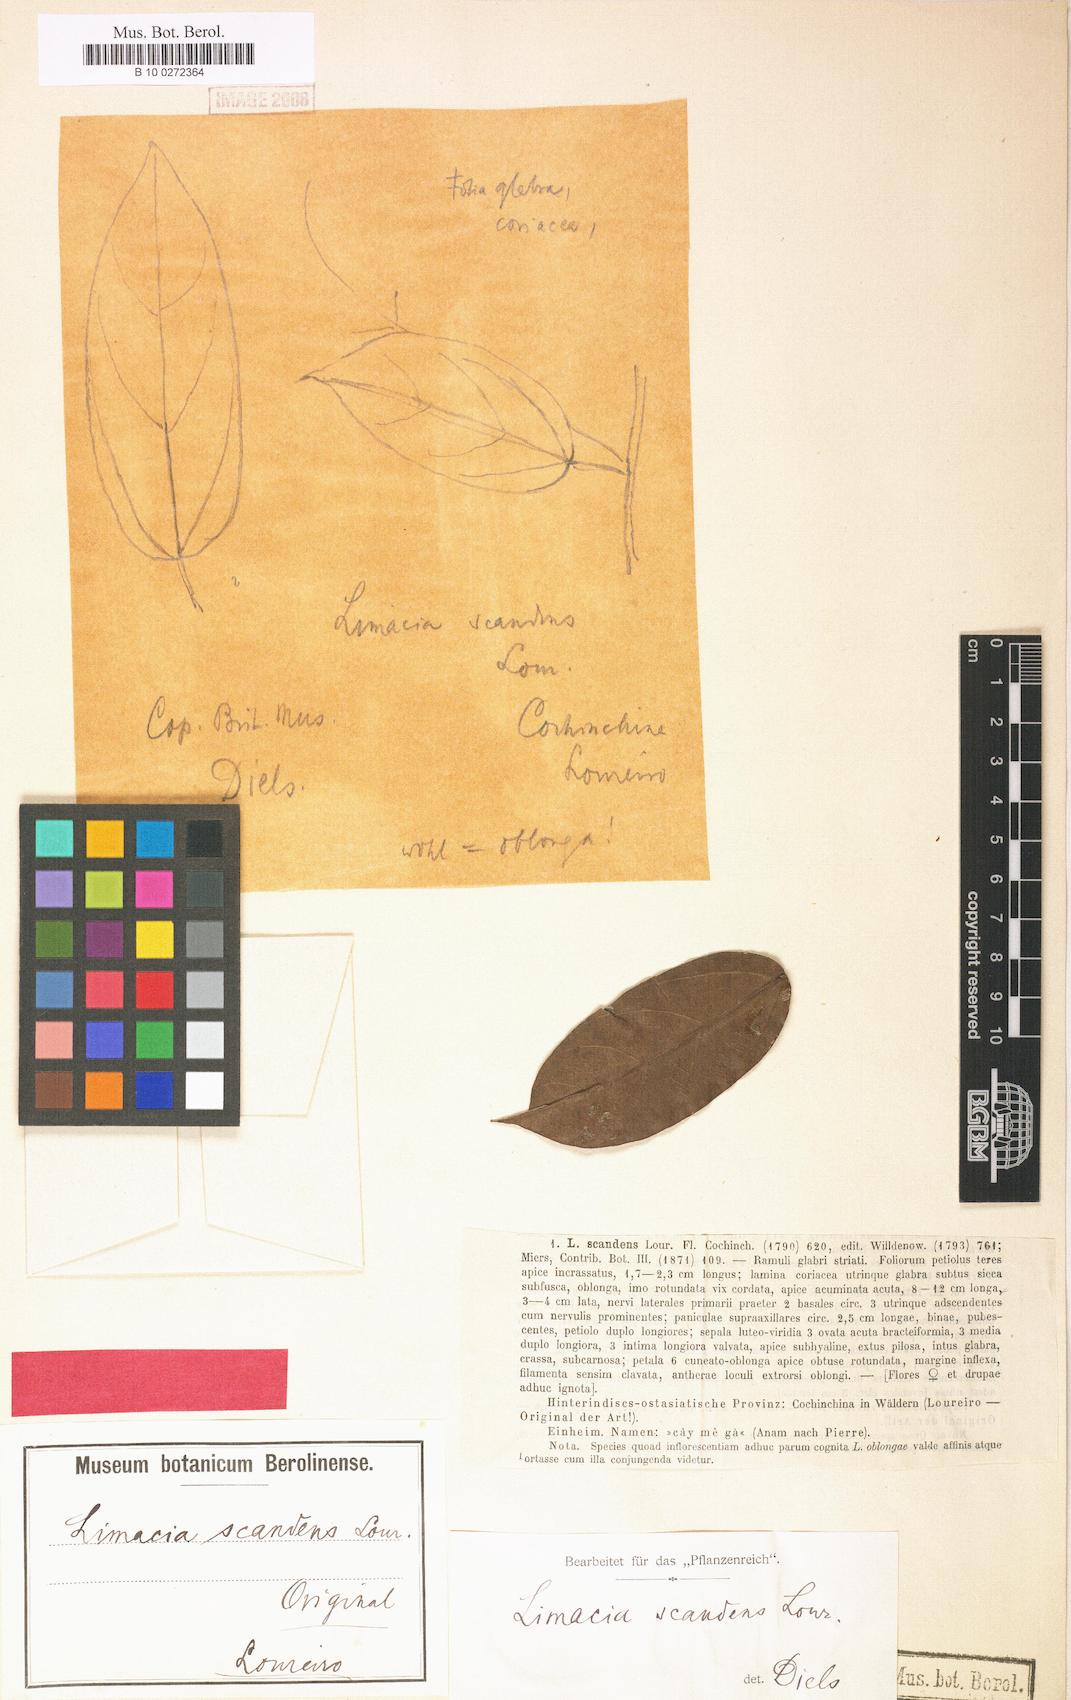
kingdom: Plantae
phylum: Tracheophyta
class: Magnoliopsida
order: Ranunculales
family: Menispermaceae
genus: Limacia
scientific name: Limacia scandens
